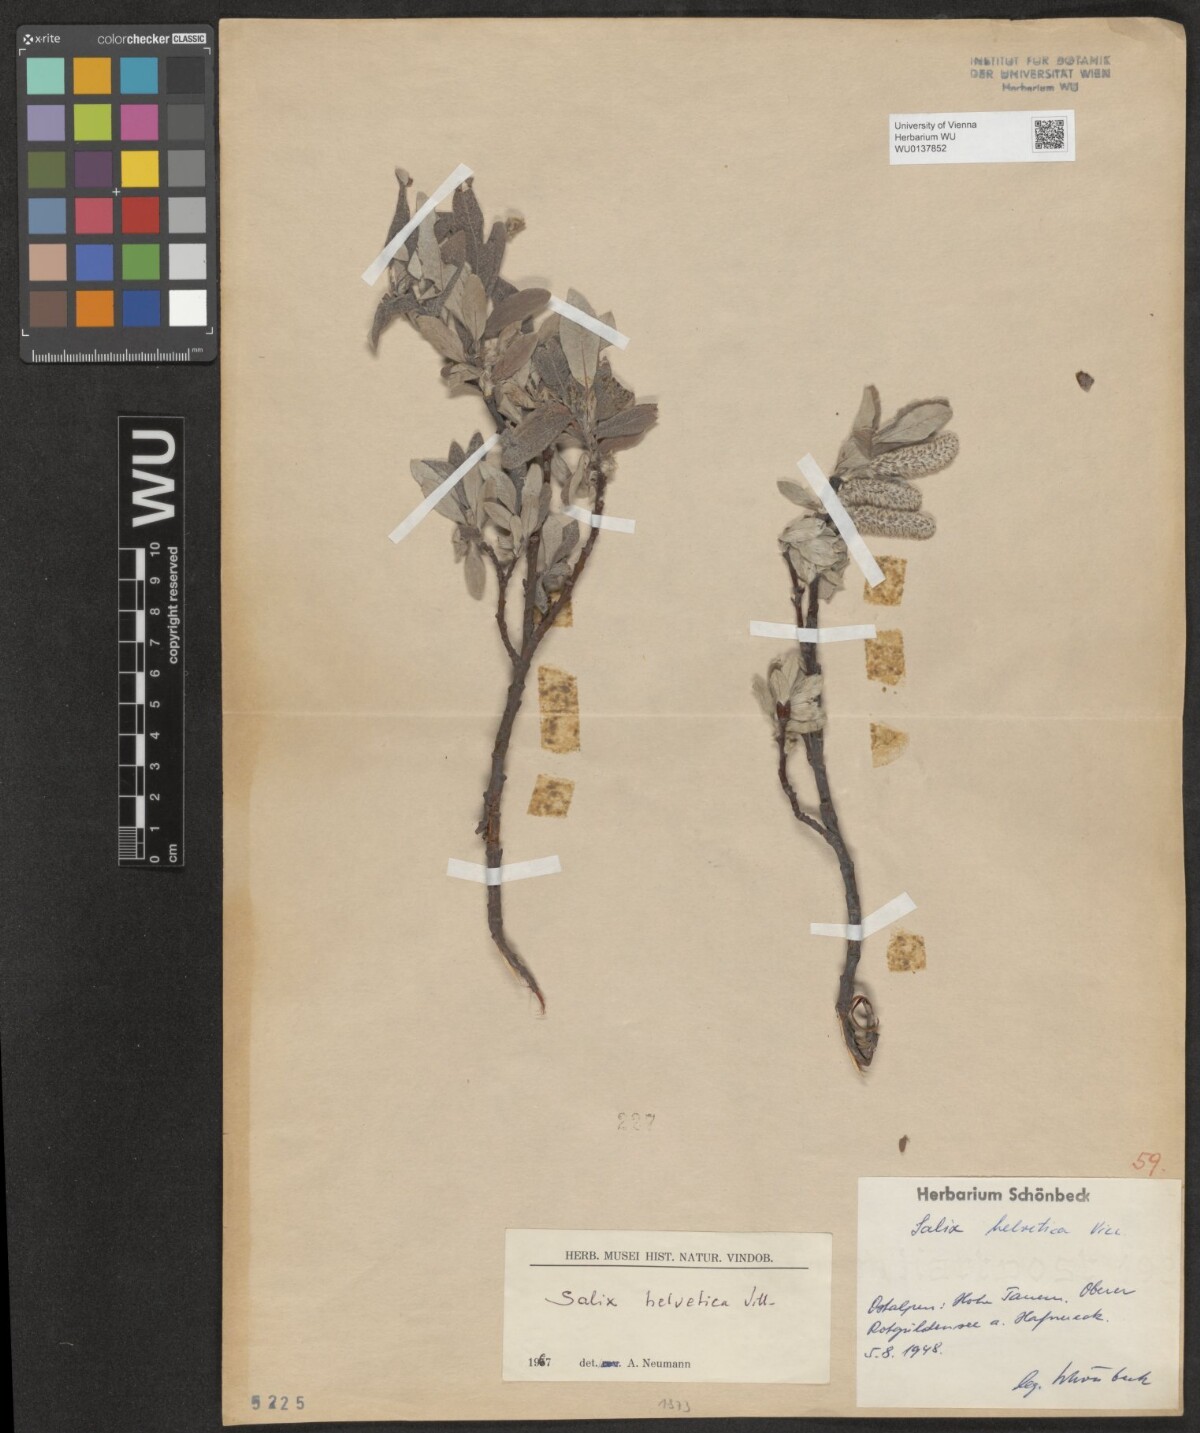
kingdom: Plantae
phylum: Tracheophyta
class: Magnoliopsida
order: Malpighiales
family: Salicaceae
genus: Salix
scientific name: Salix helvetica
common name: Swiss willow
